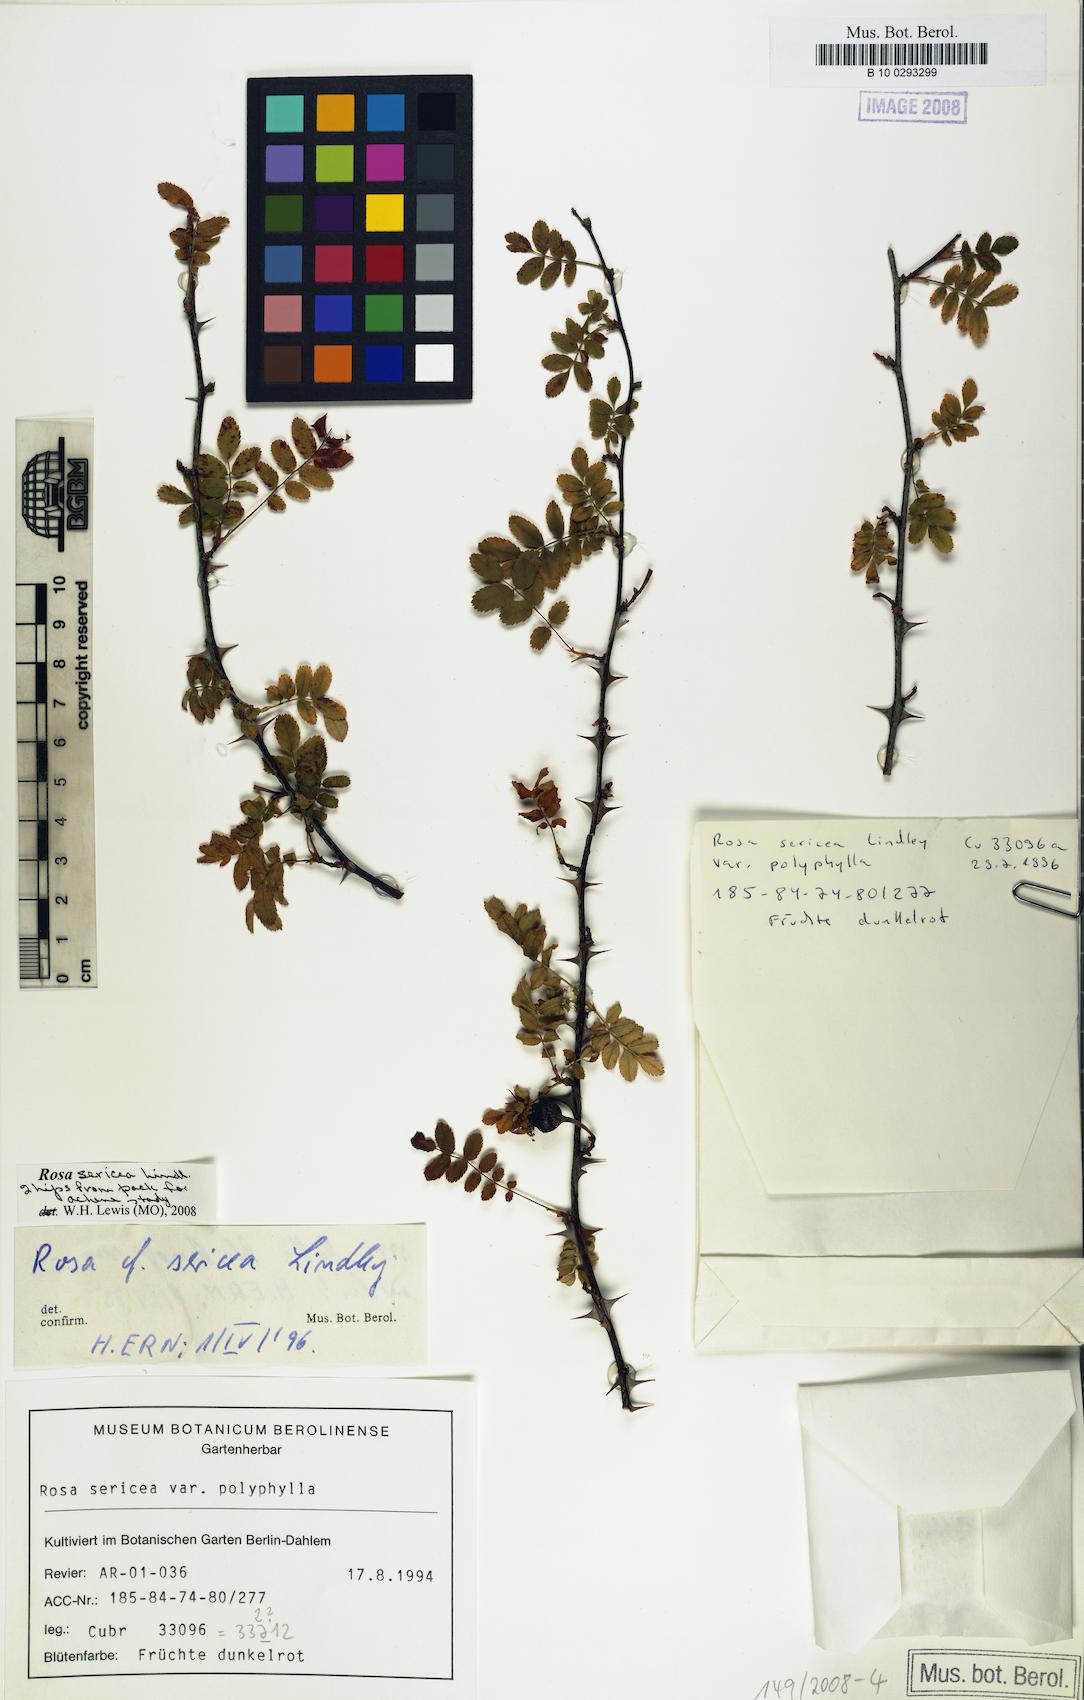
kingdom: Plantae
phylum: Tracheophyta
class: Magnoliopsida
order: Rosales
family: Rosaceae
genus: Rosa
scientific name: Rosa sericea
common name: Silky rose
